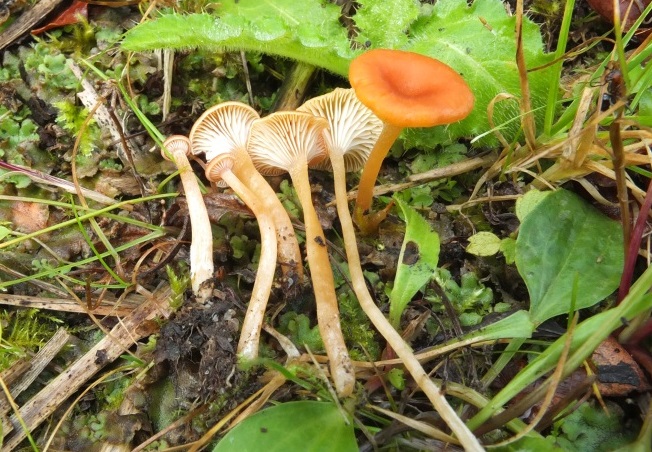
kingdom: Fungi
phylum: Basidiomycota
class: Agaricomycetes
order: Hymenochaetales
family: Rickenellaceae
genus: Loreleia
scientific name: Loreleia postii
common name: brandplet-mosnavlehat
